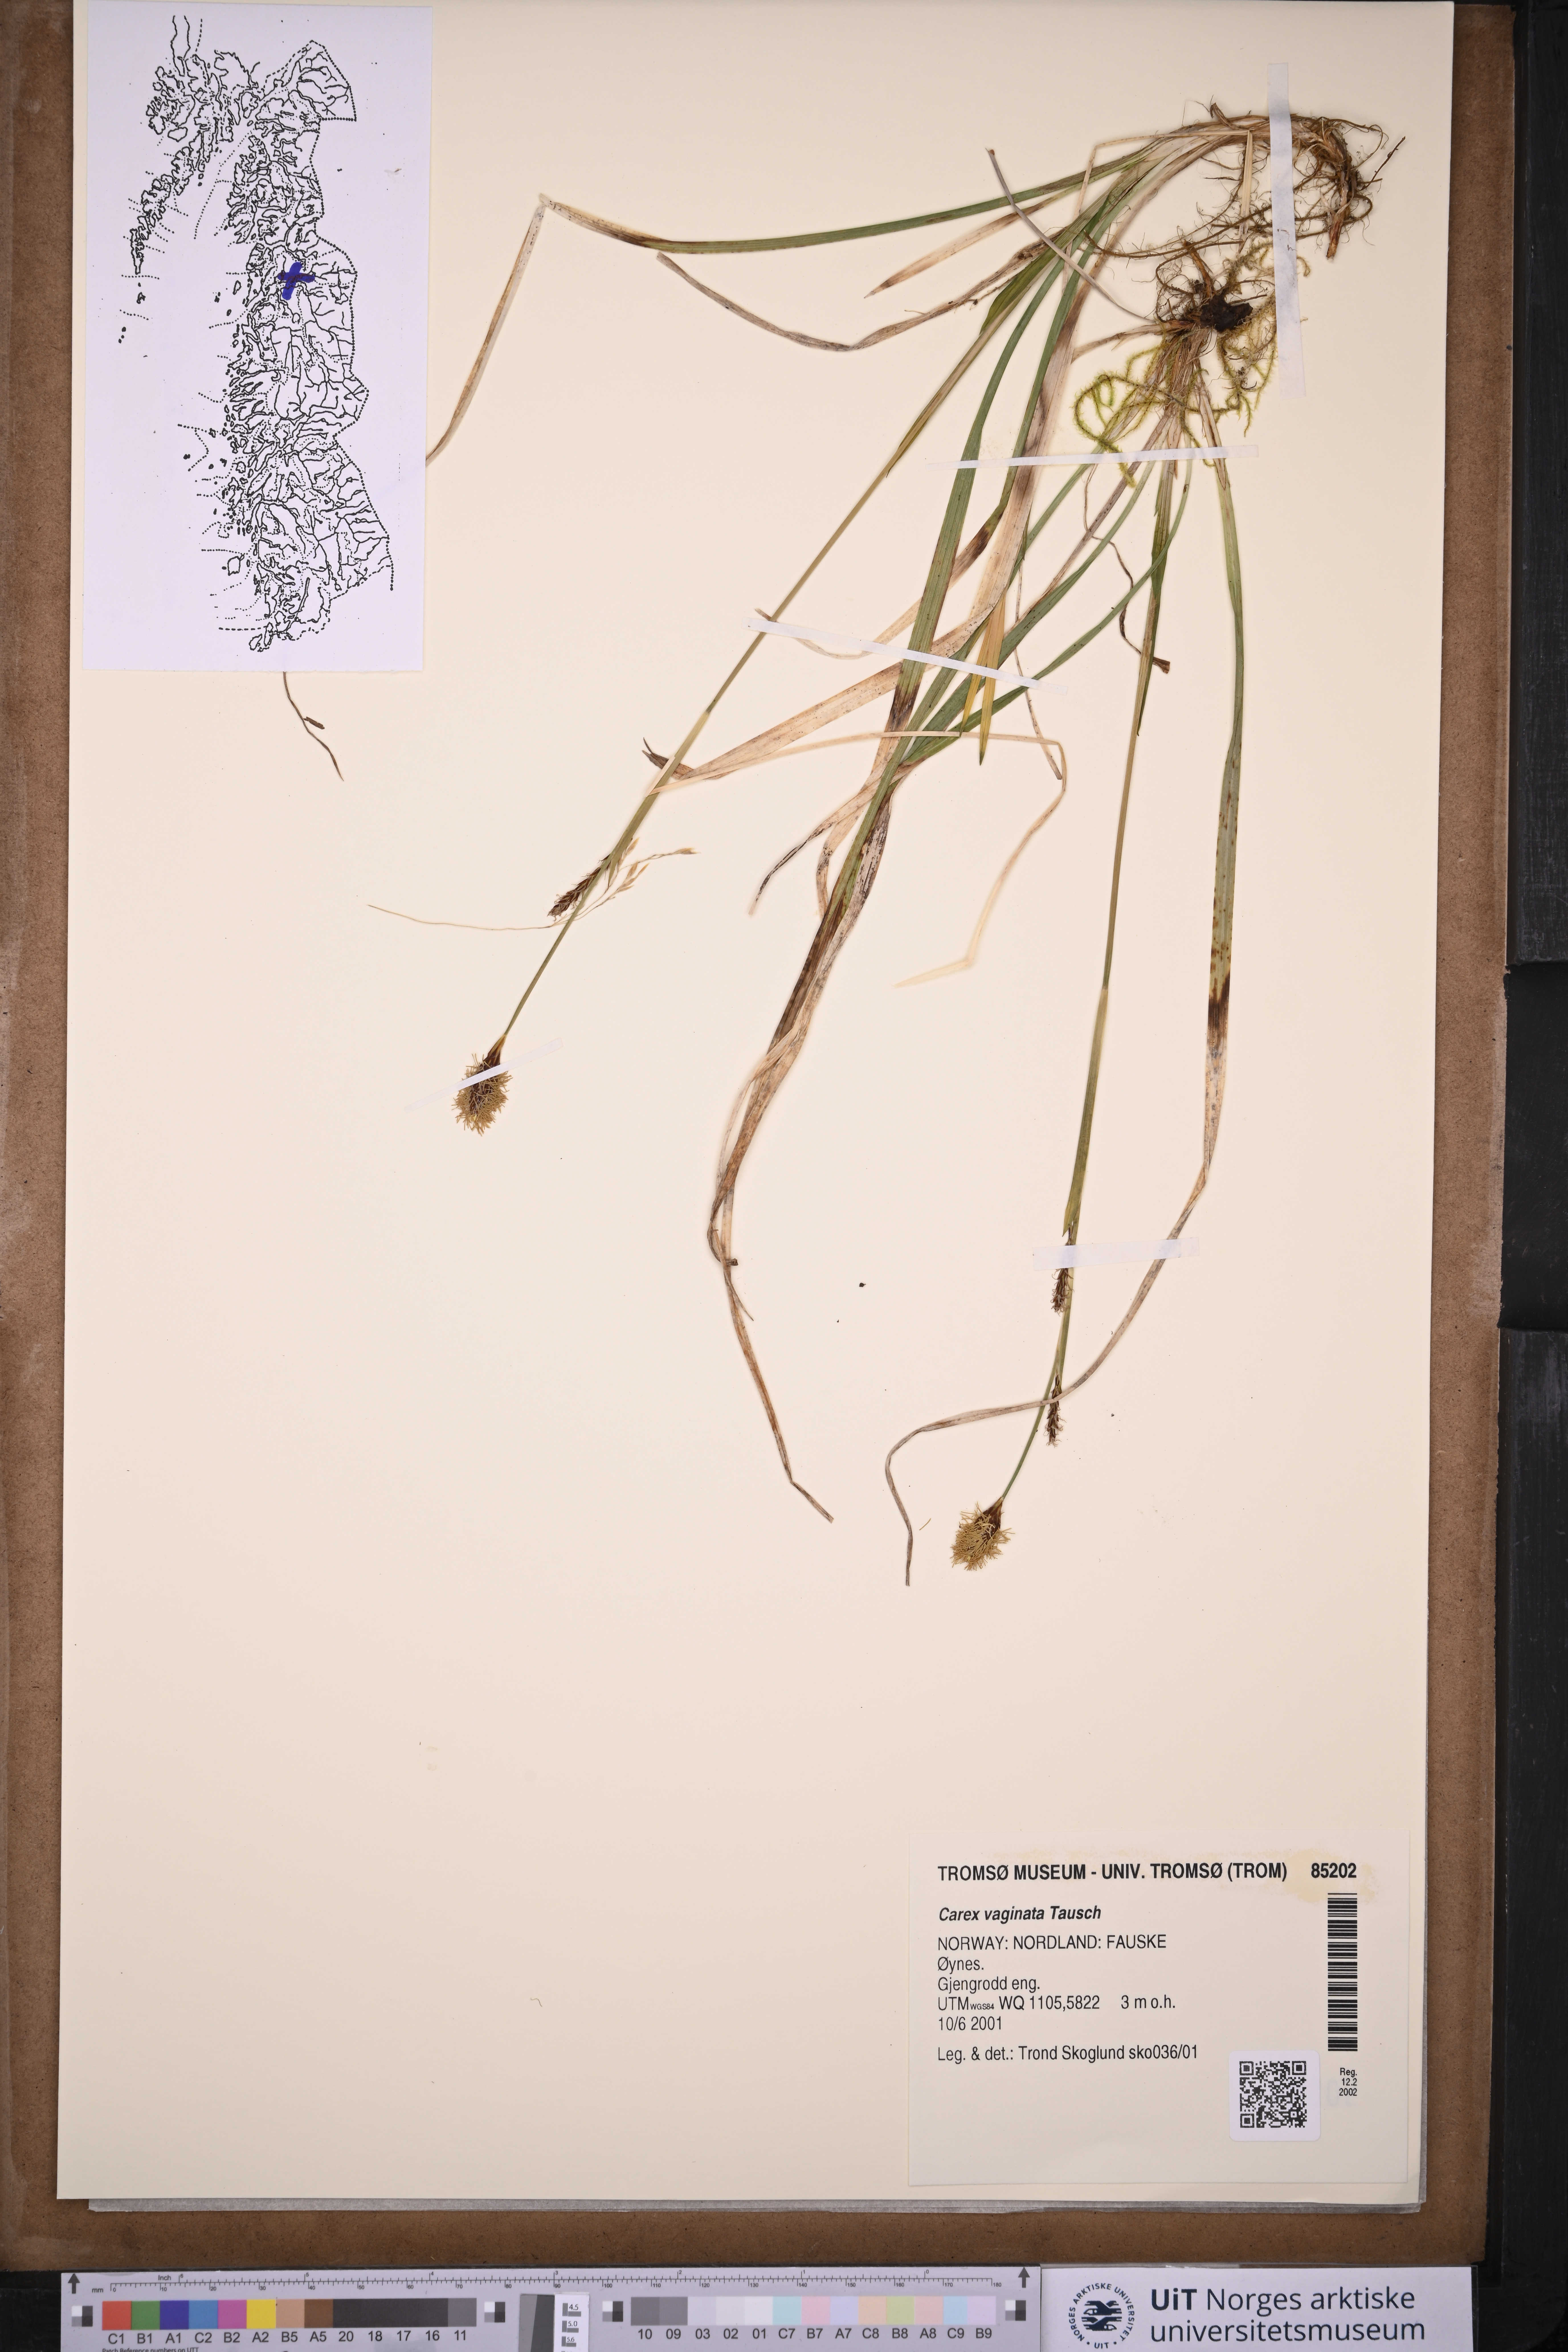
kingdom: Plantae
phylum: Tracheophyta
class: Liliopsida
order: Poales
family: Cyperaceae
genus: Carex
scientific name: Carex vaginata
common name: Sheathed sedge
